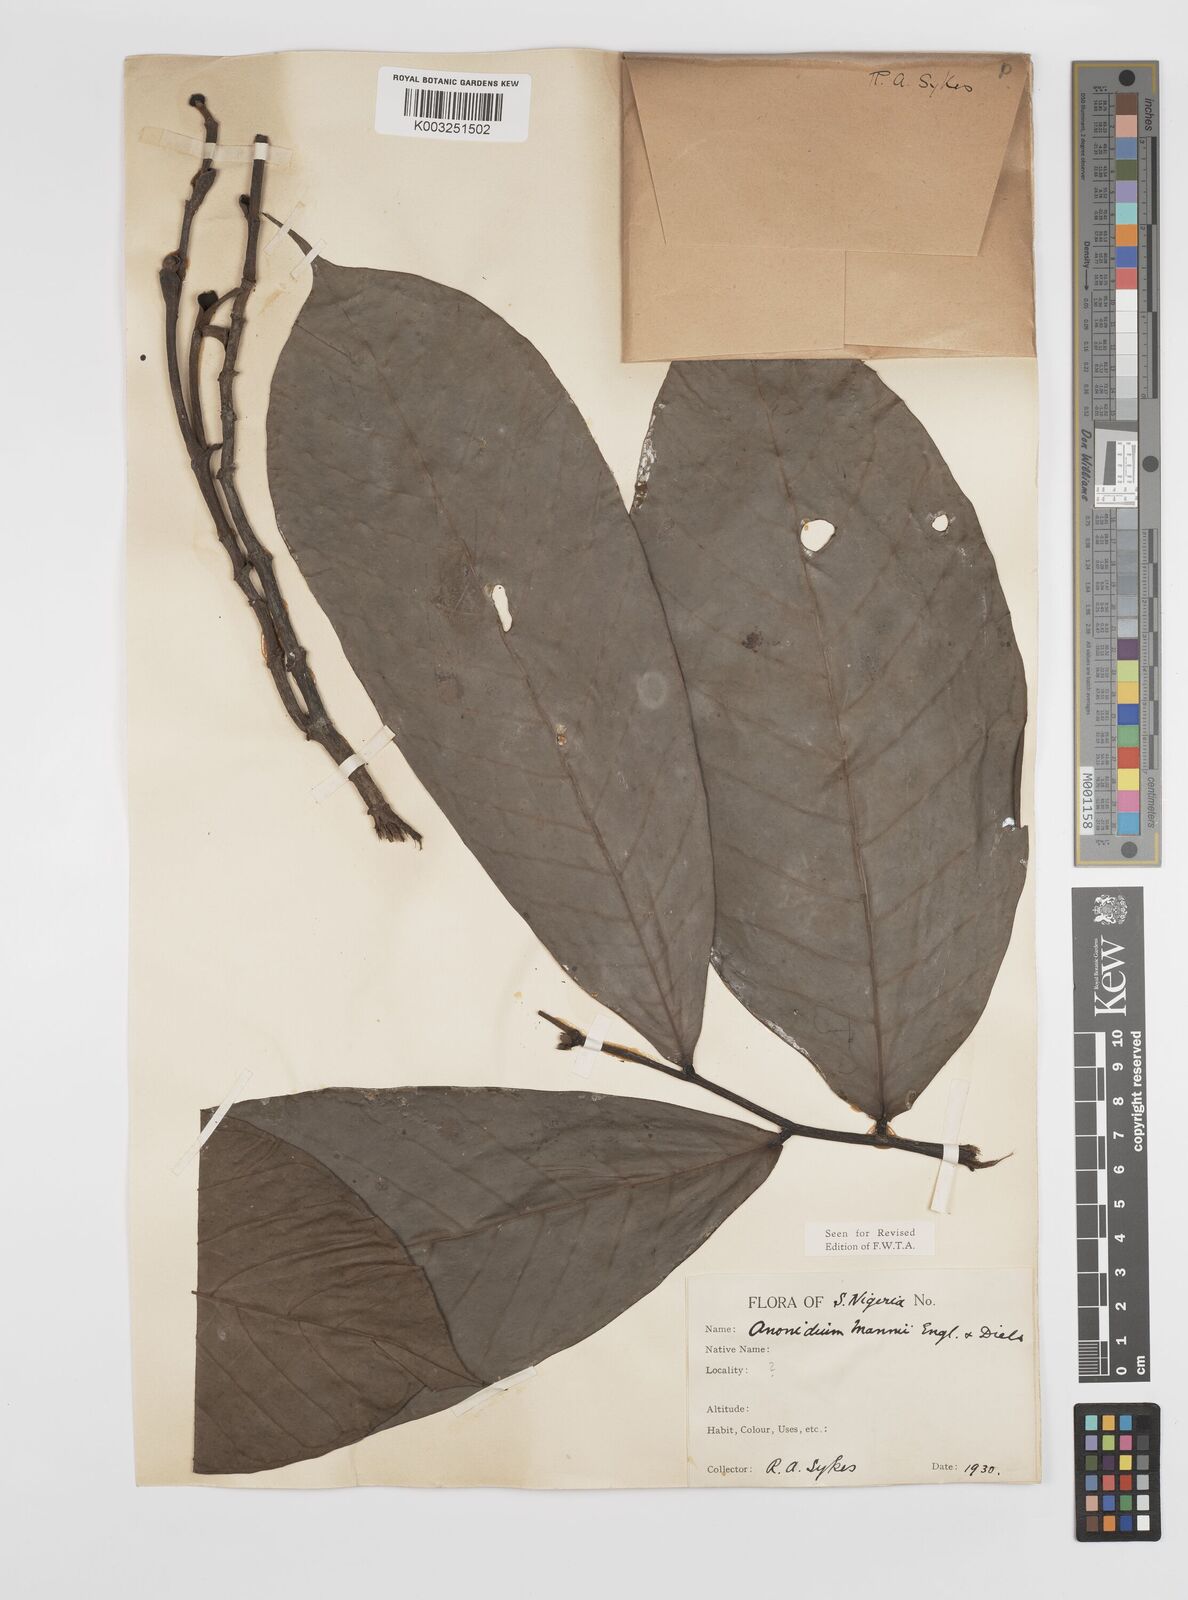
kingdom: Plantae
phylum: Tracheophyta
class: Magnoliopsida
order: Magnoliales
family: Annonaceae
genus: Anonidium
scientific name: Anonidium mannii
